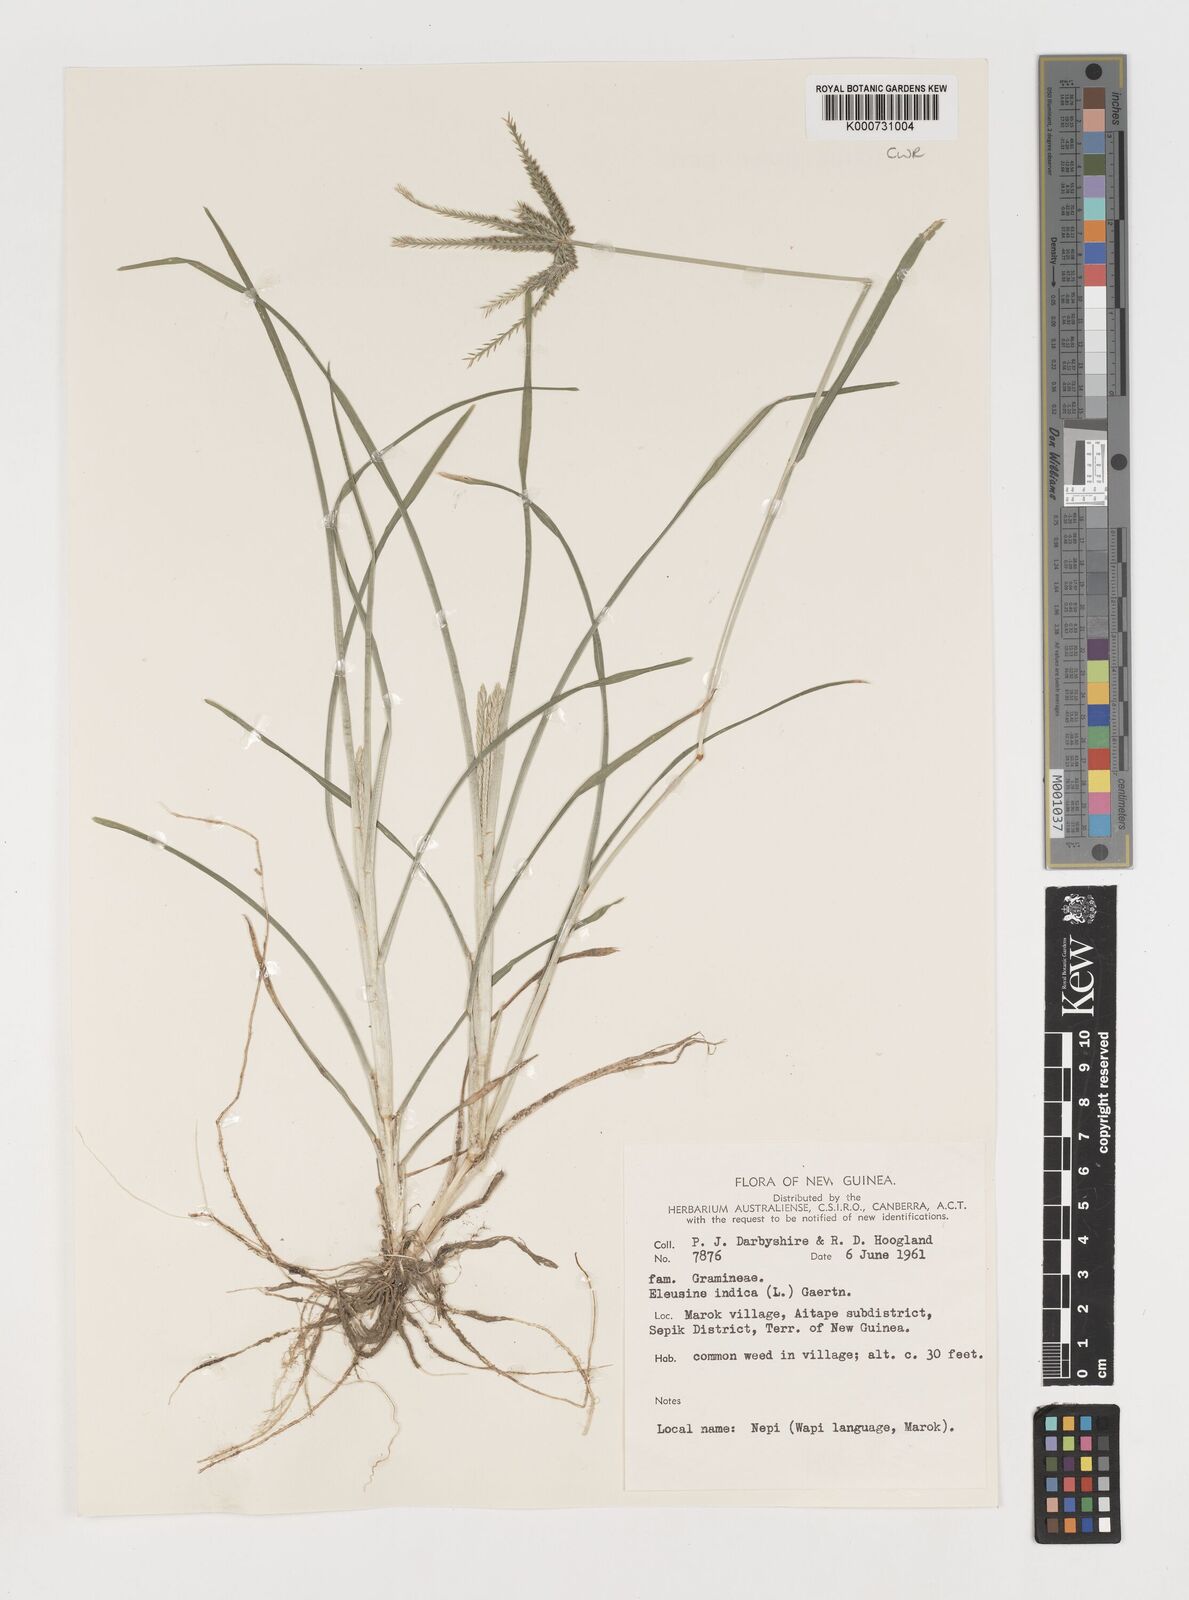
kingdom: Plantae
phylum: Tracheophyta
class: Liliopsida
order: Poales
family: Poaceae
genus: Eleusine
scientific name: Eleusine indica
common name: Yard-grass
